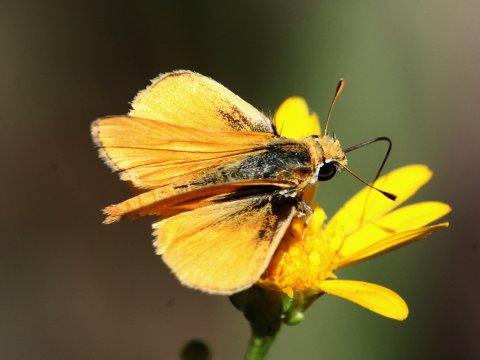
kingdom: Animalia
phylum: Arthropoda
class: Insecta
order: Lepidoptera
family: Hesperiidae
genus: Copaeodes
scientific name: Copaeodes aurantiaca
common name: Orange Skipperling
